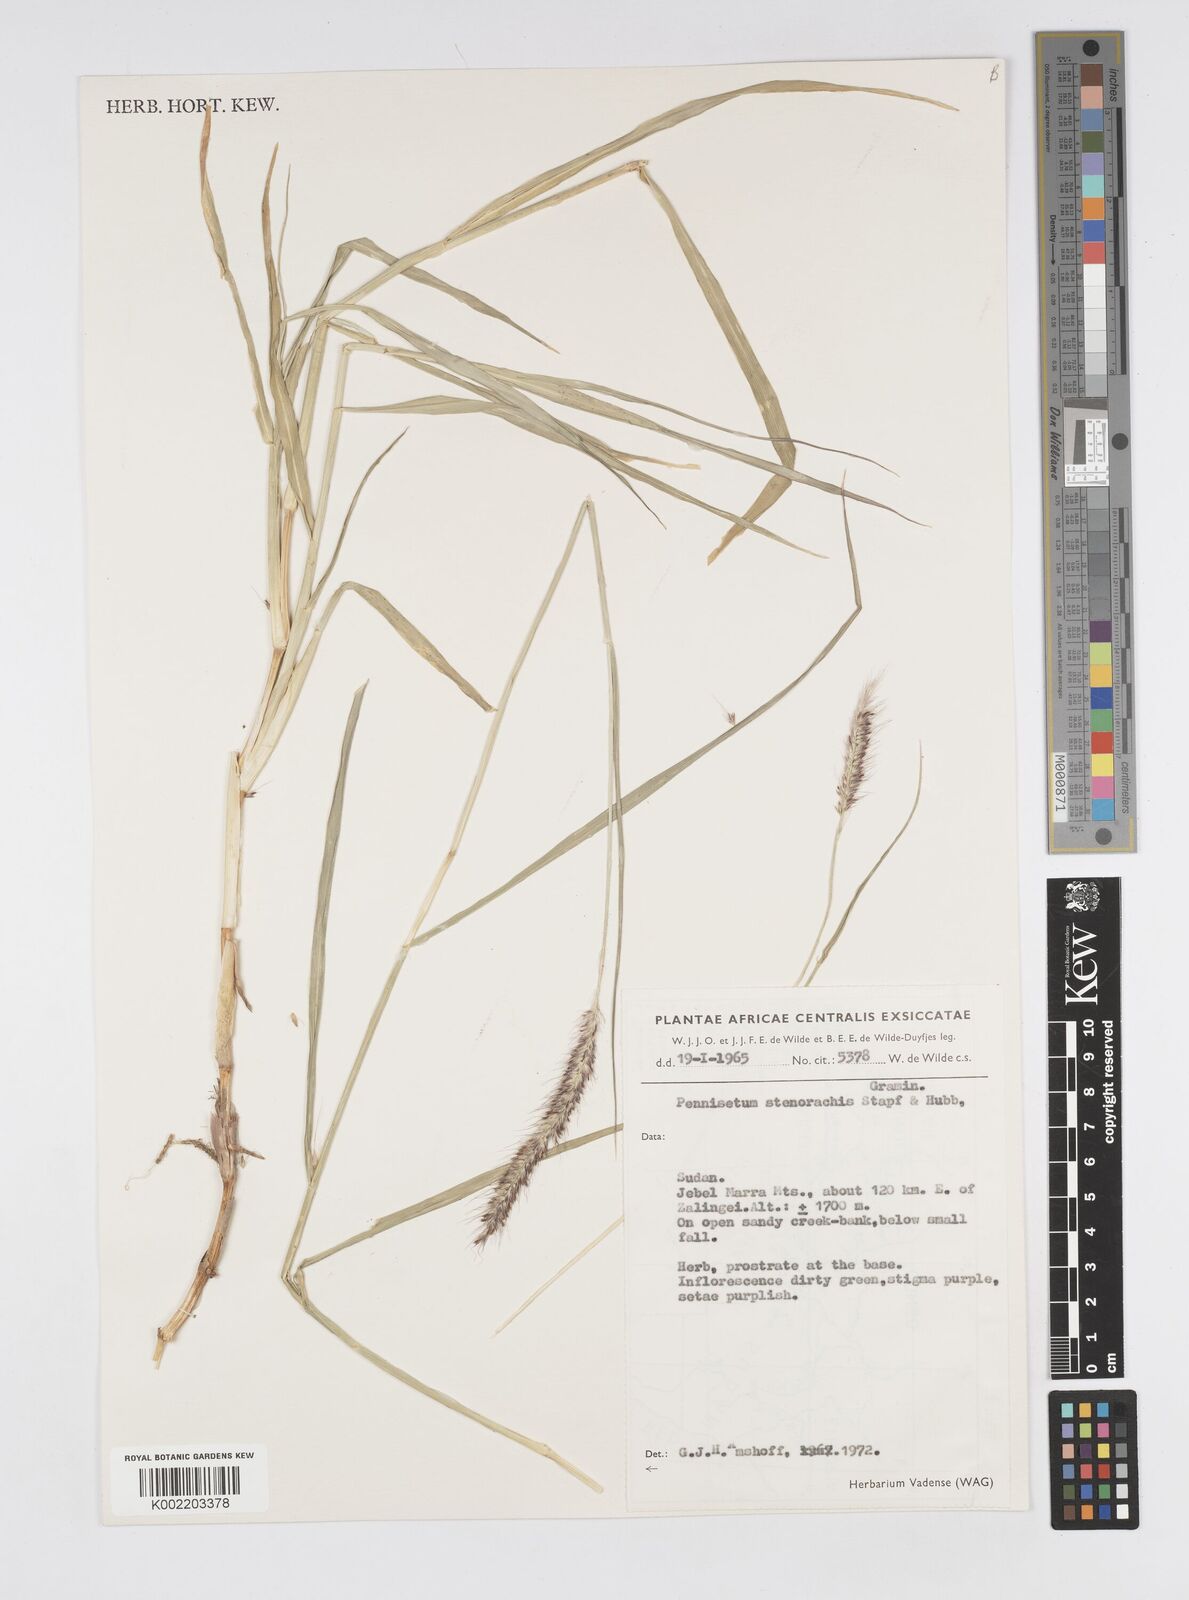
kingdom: Plantae
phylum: Tracheophyta
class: Liliopsida
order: Poales
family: Poaceae
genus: Cenchrus
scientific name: Cenchrus caudatus
